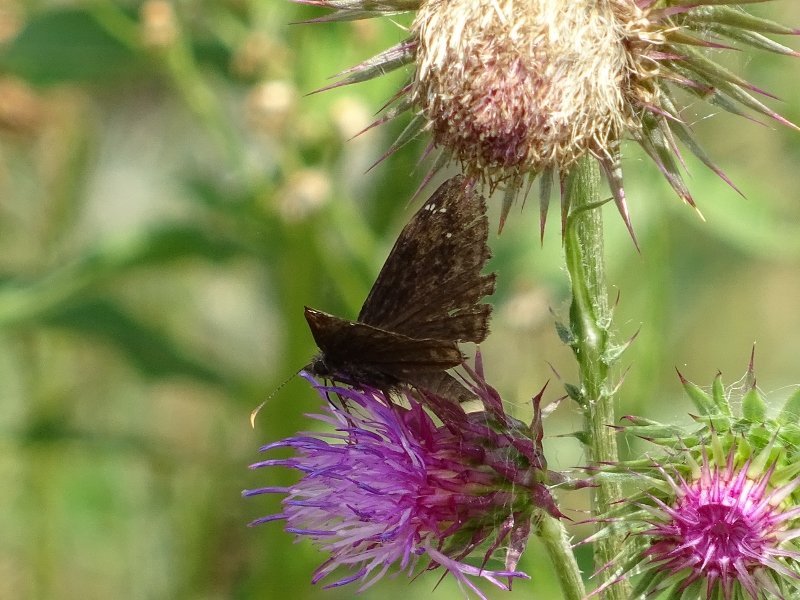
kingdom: Animalia
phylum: Arthropoda
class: Insecta
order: Lepidoptera
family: Hesperiidae
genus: Gesta
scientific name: Gesta
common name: Wild Indigo Duskywing
